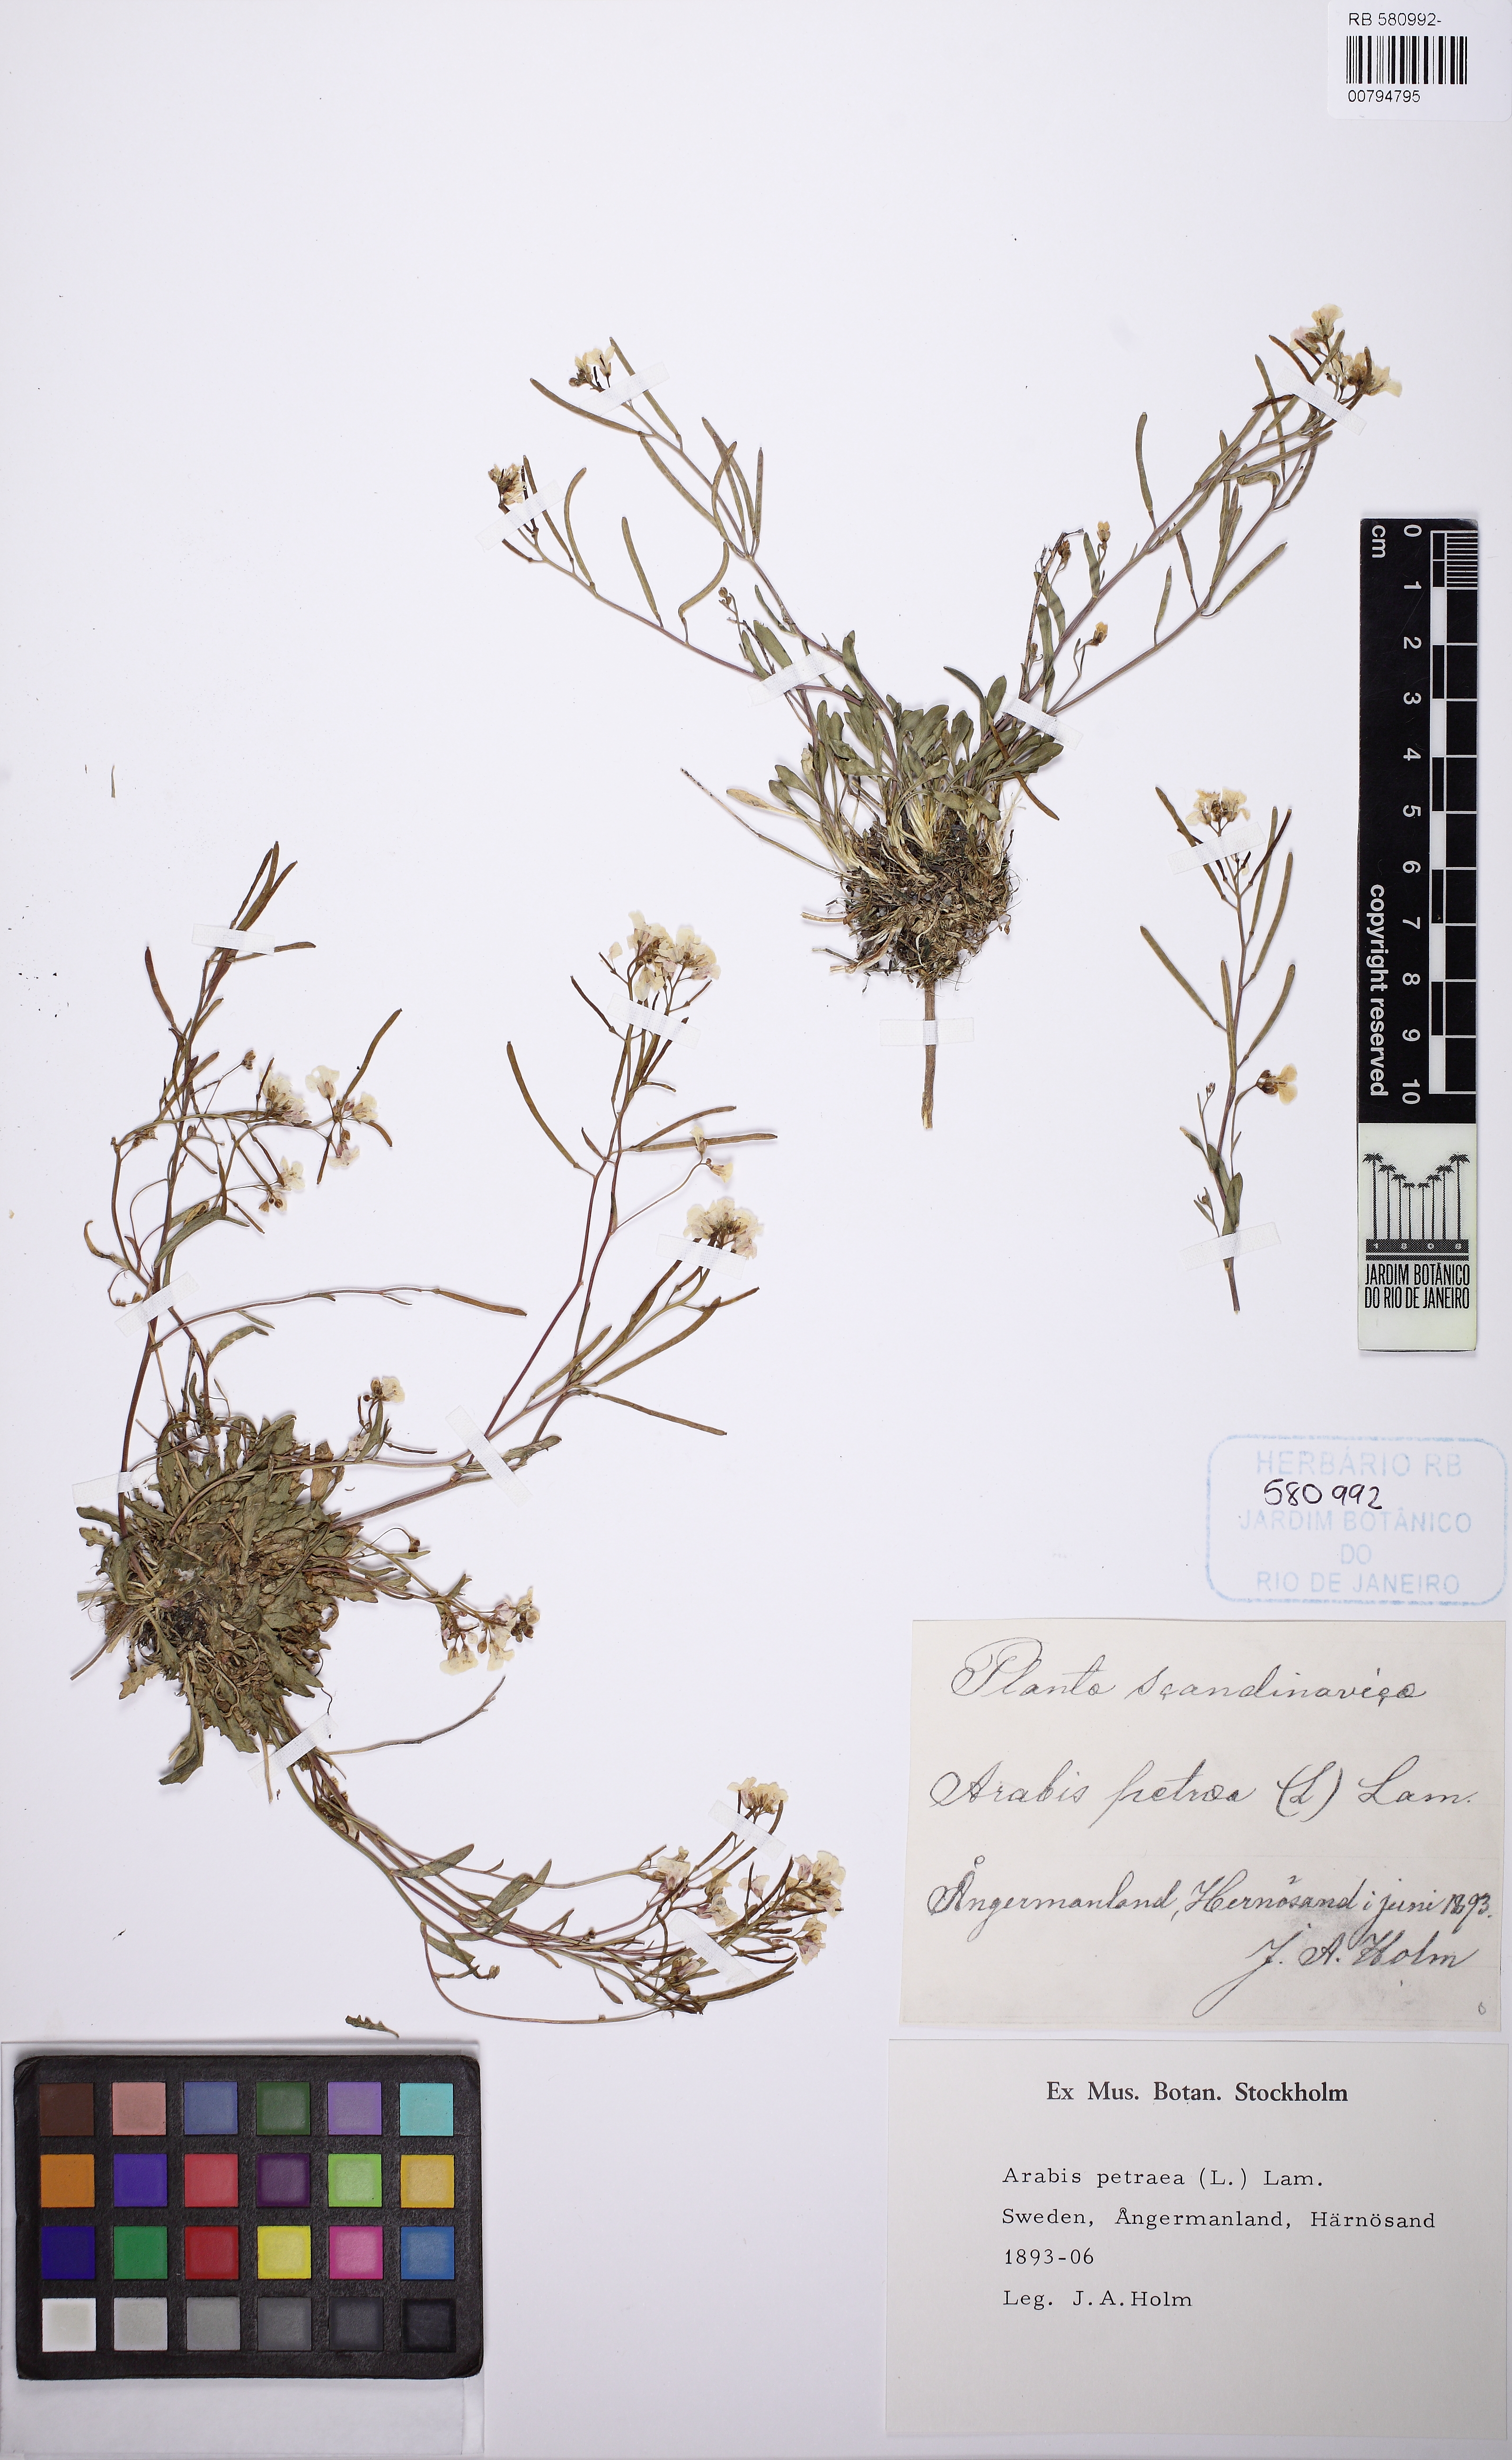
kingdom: Plantae
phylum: Tracheophyta
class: Magnoliopsida
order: Brassicales
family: Brassicaceae
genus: Arabidopsis
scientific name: Arabidopsis lyrata
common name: Lyrate rockcress
